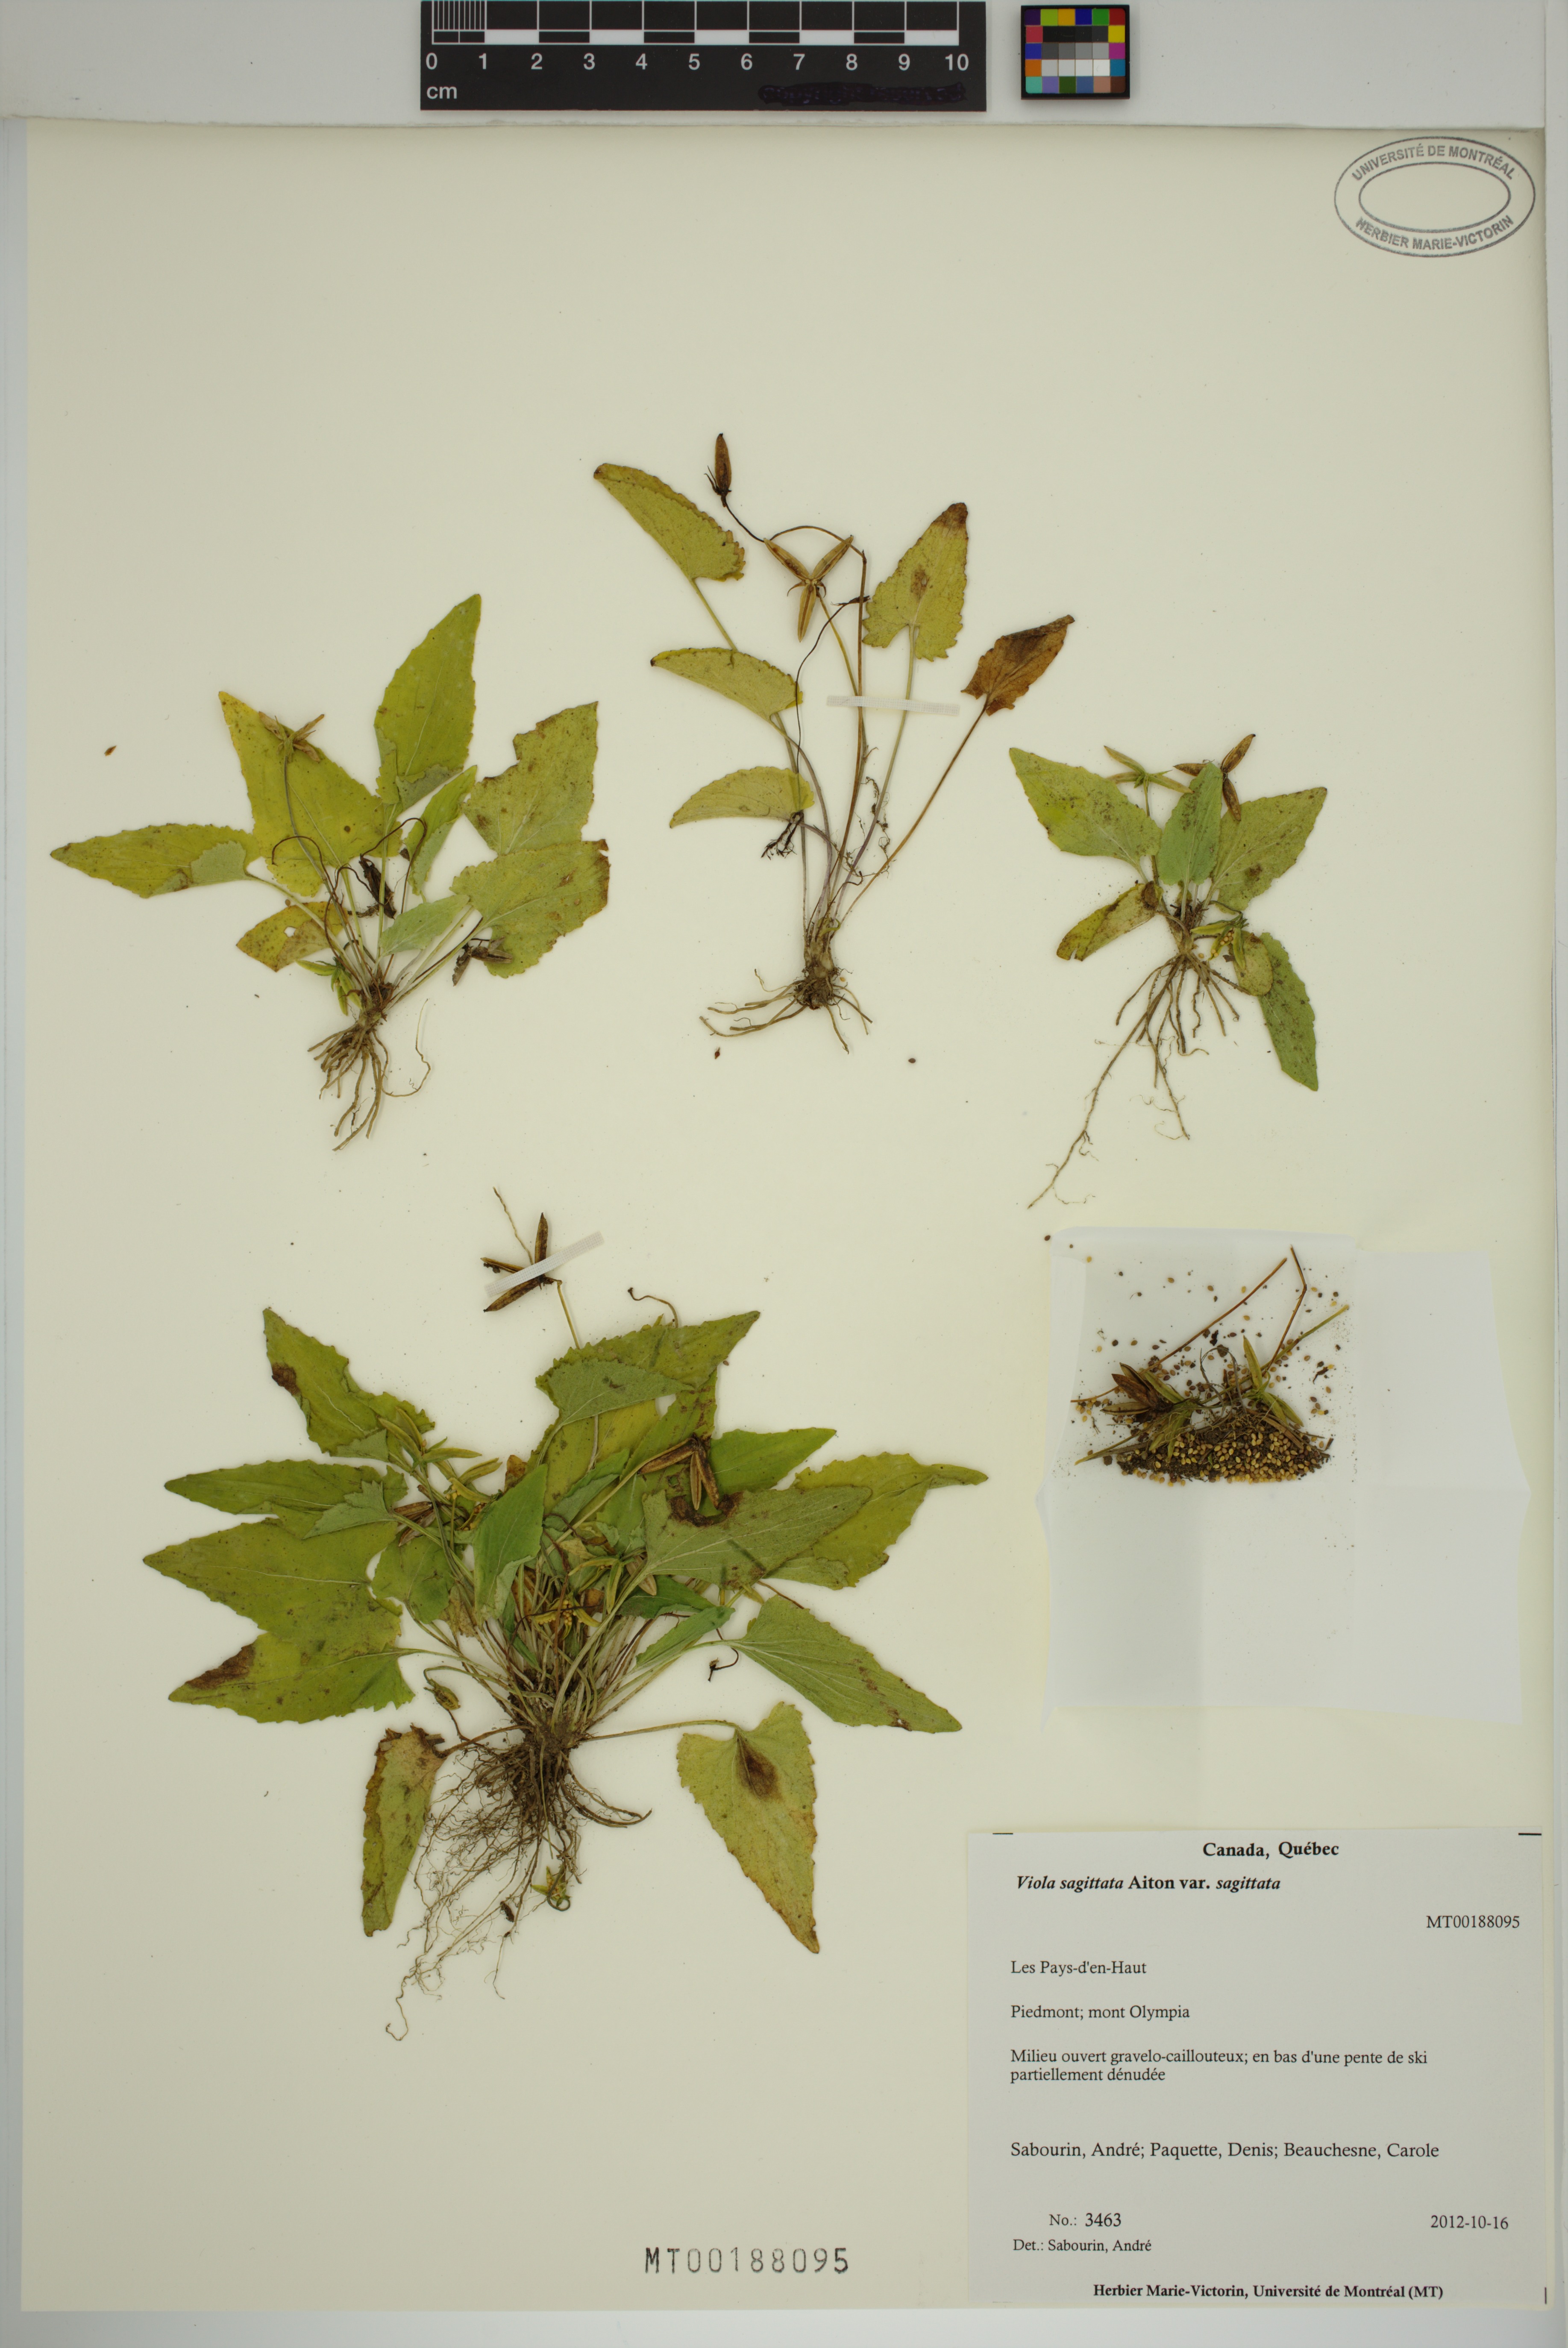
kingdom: Plantae
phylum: Tracheophyta
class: Magnoliopsida
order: Malpighiales
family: Violaceae
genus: Viola
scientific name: Viola sagittata
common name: Arrowhead violet
